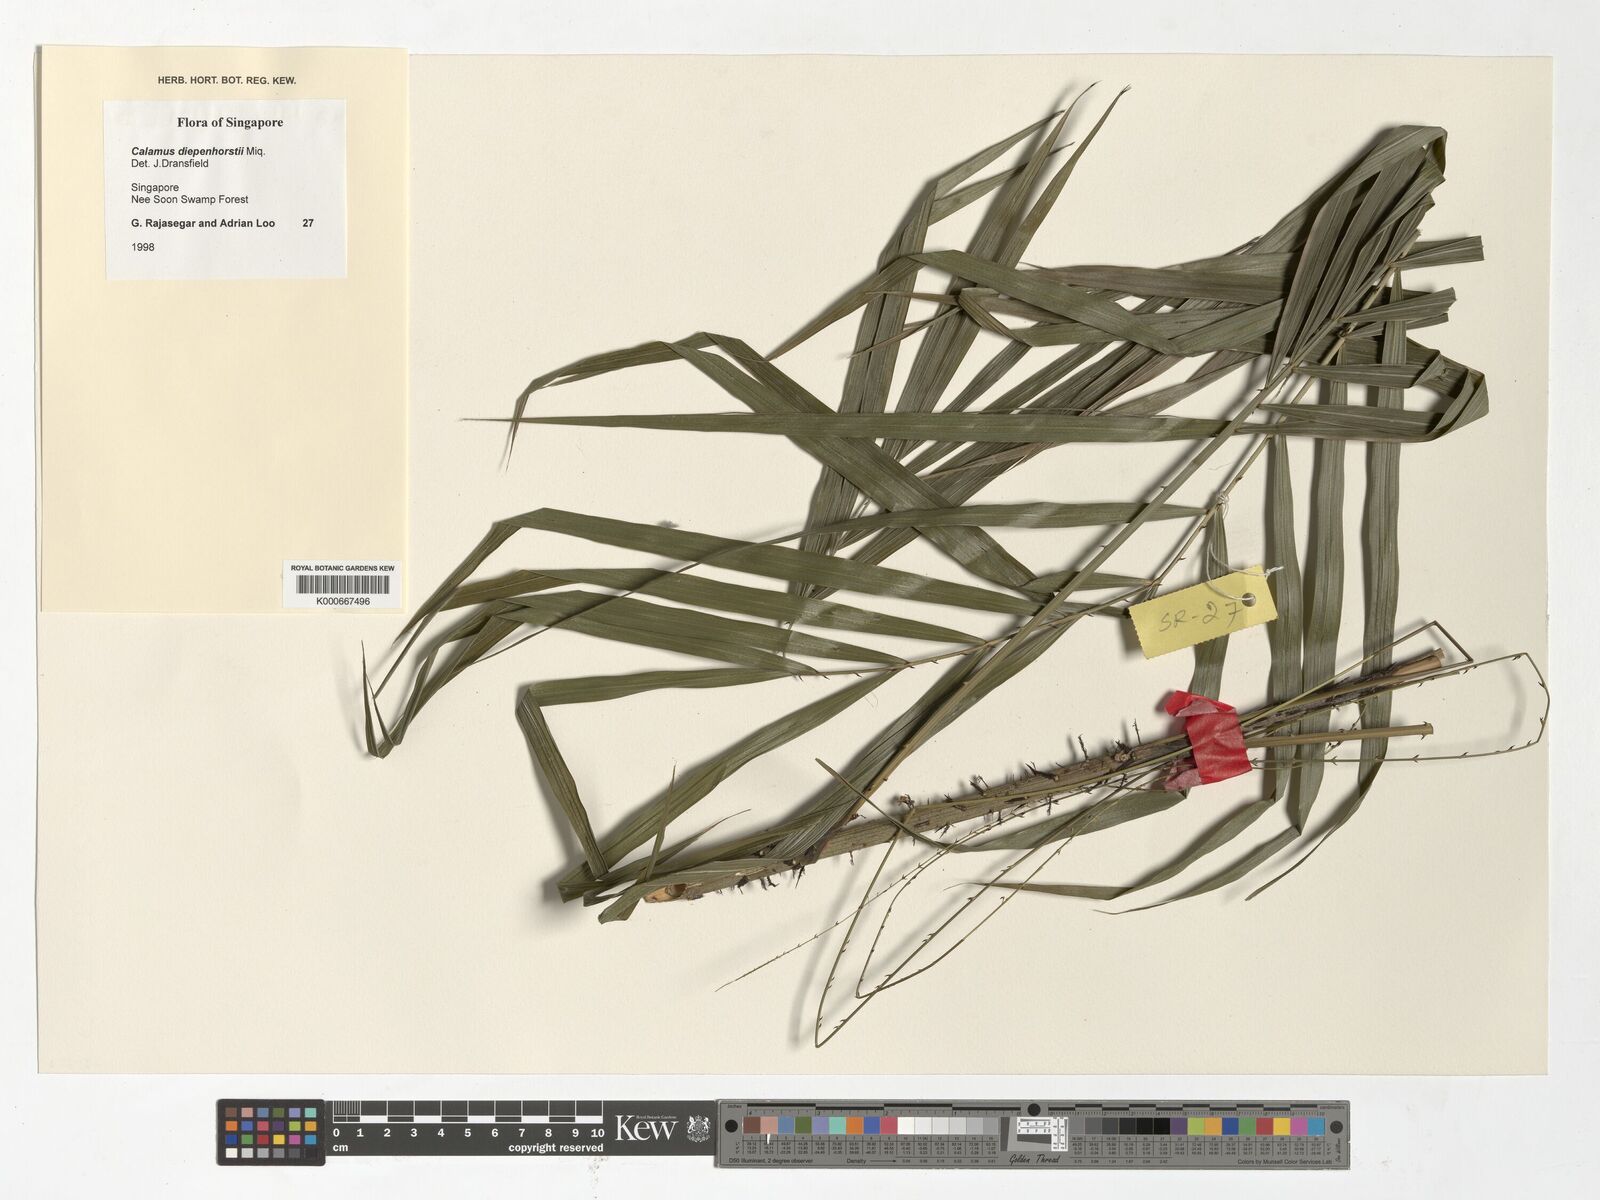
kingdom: Plantae
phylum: Tracheophyta
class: Liliopsida
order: Arecales
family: Arecaceae
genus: Calamus
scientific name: Calamus diepenhorstii
